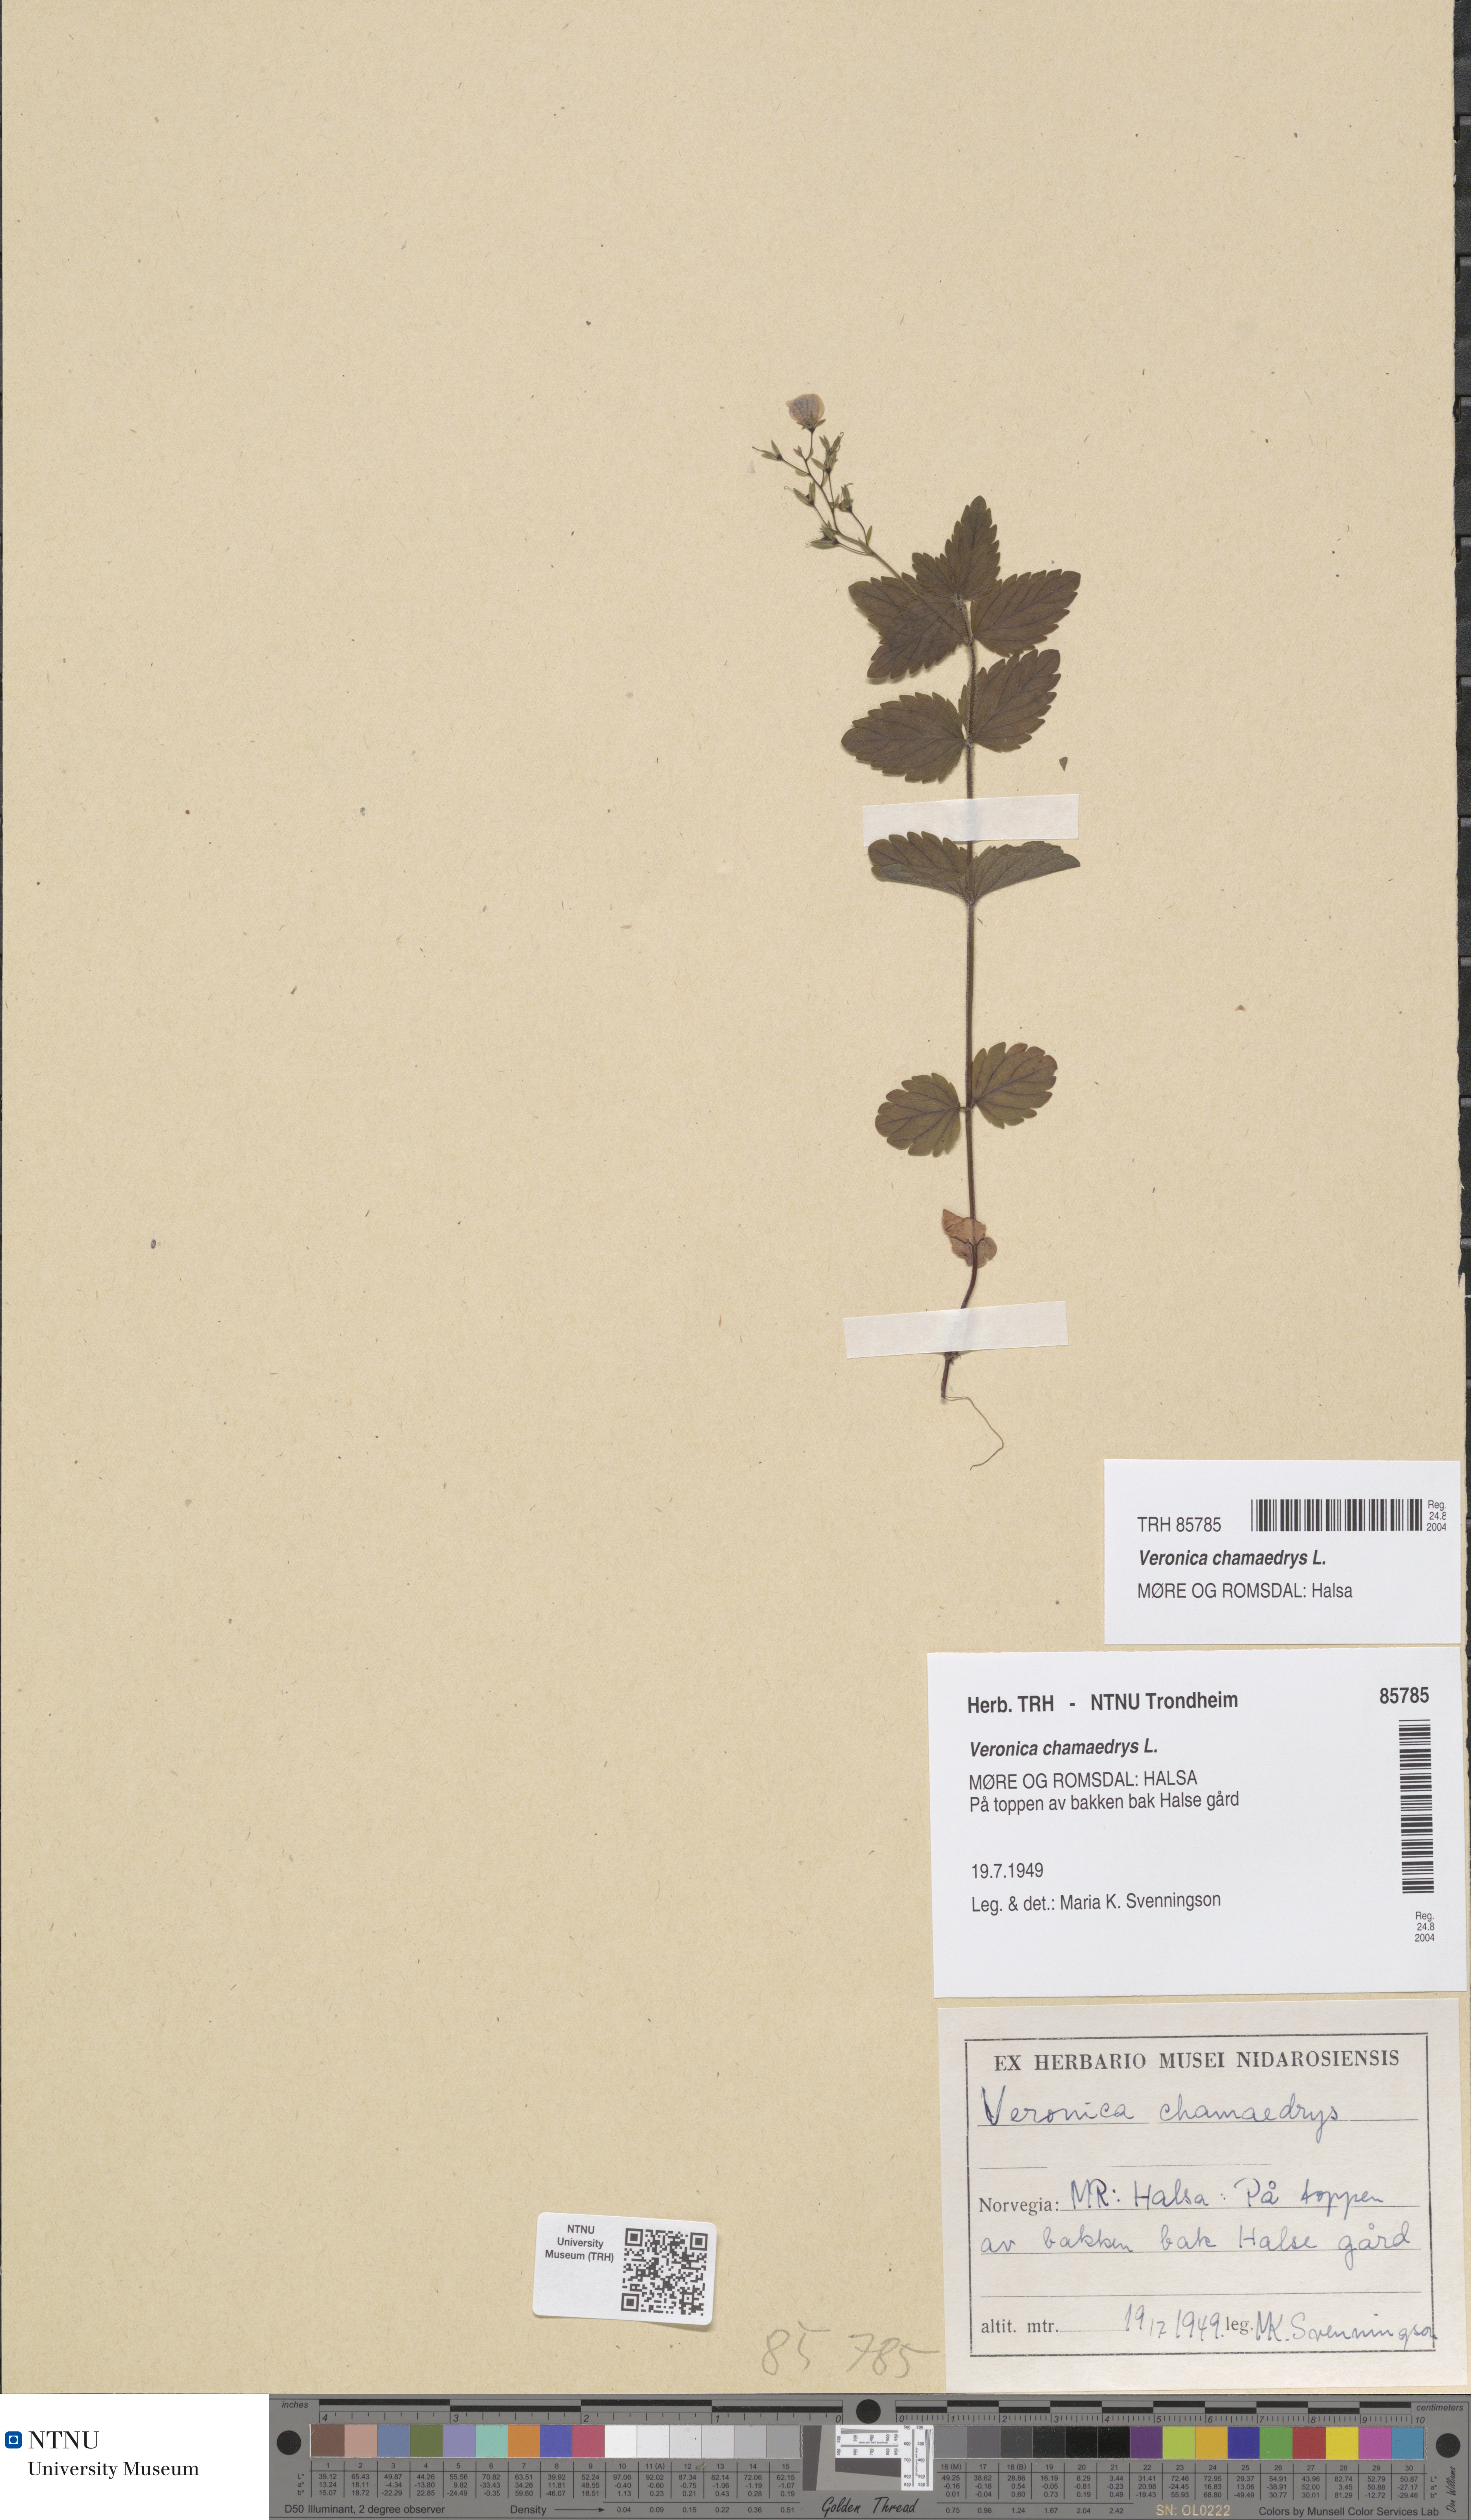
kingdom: Plantae
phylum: Tracheophyta
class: Magnoliopsida
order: Lamiales
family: Plantaginaceae
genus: Veronica
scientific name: Veronica chamaedrys
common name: Germander speedwell
